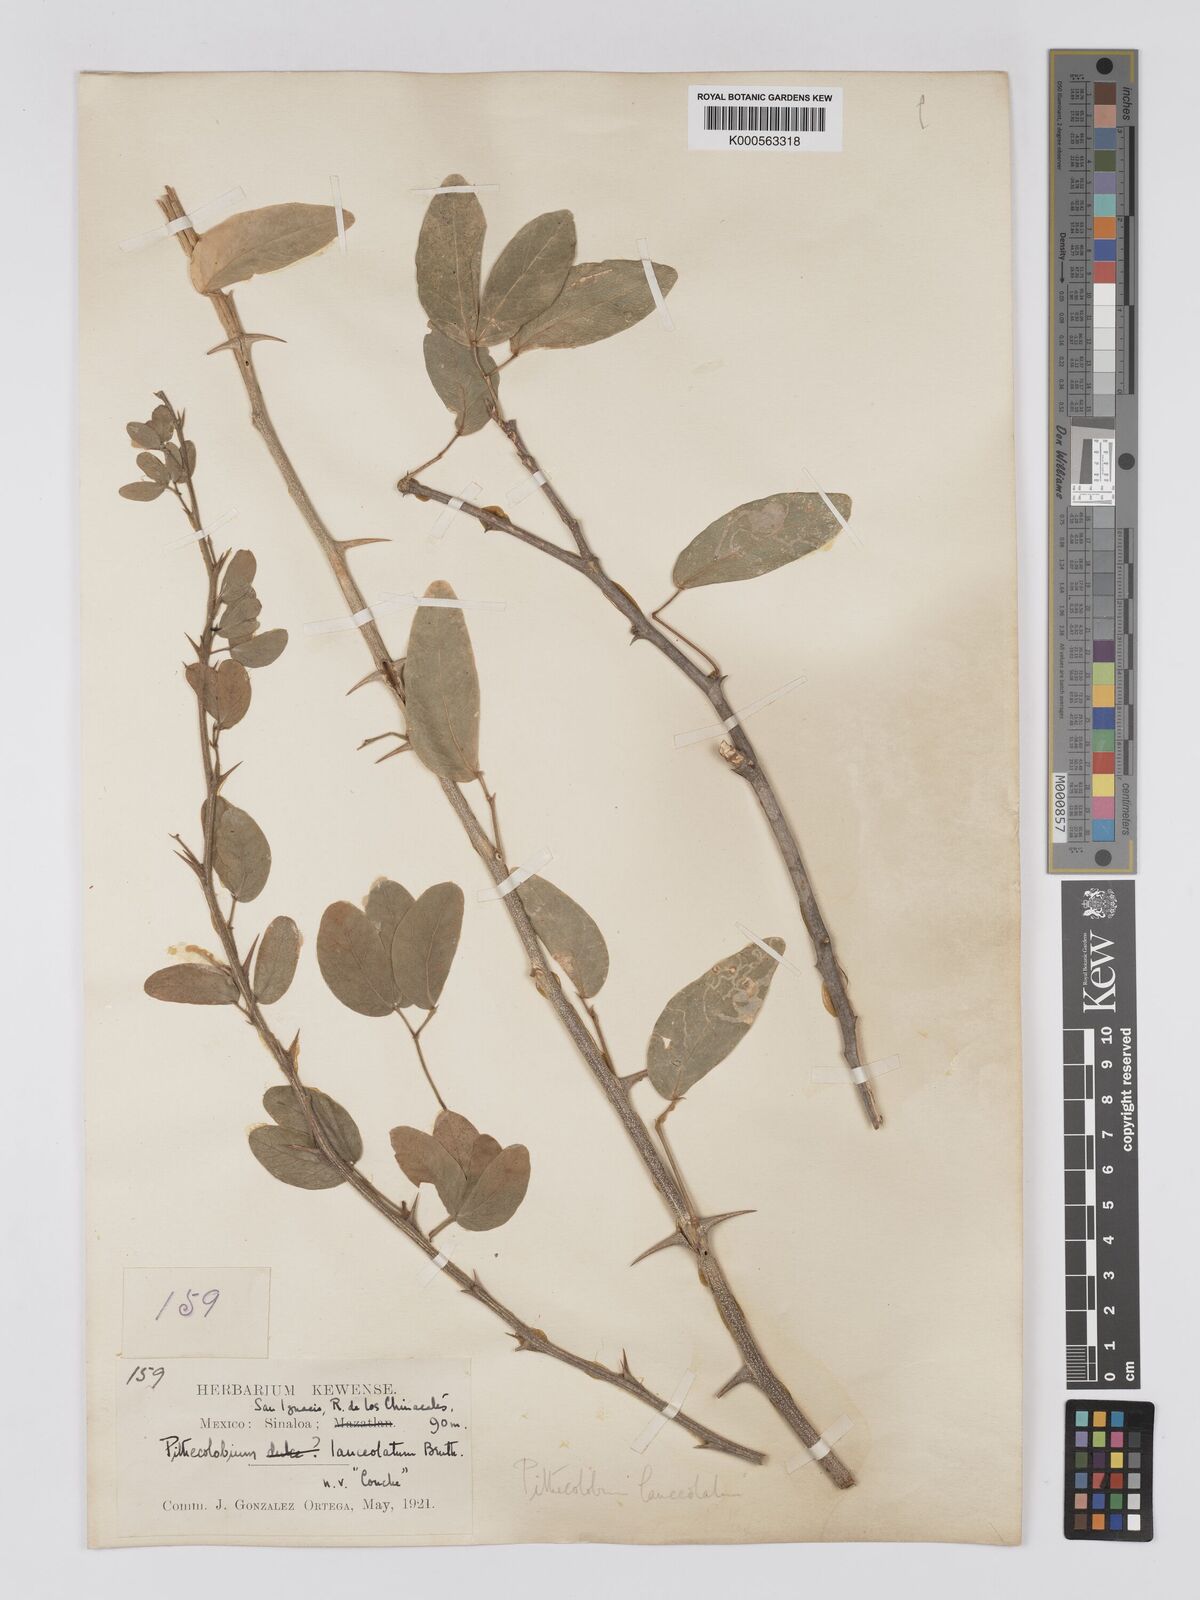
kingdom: Plantae
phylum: Tracheophyta
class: Magnoliopsida
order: Fabales
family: Fabaceae
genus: Pithecellobium
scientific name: Pithecellobium lanceolatum
